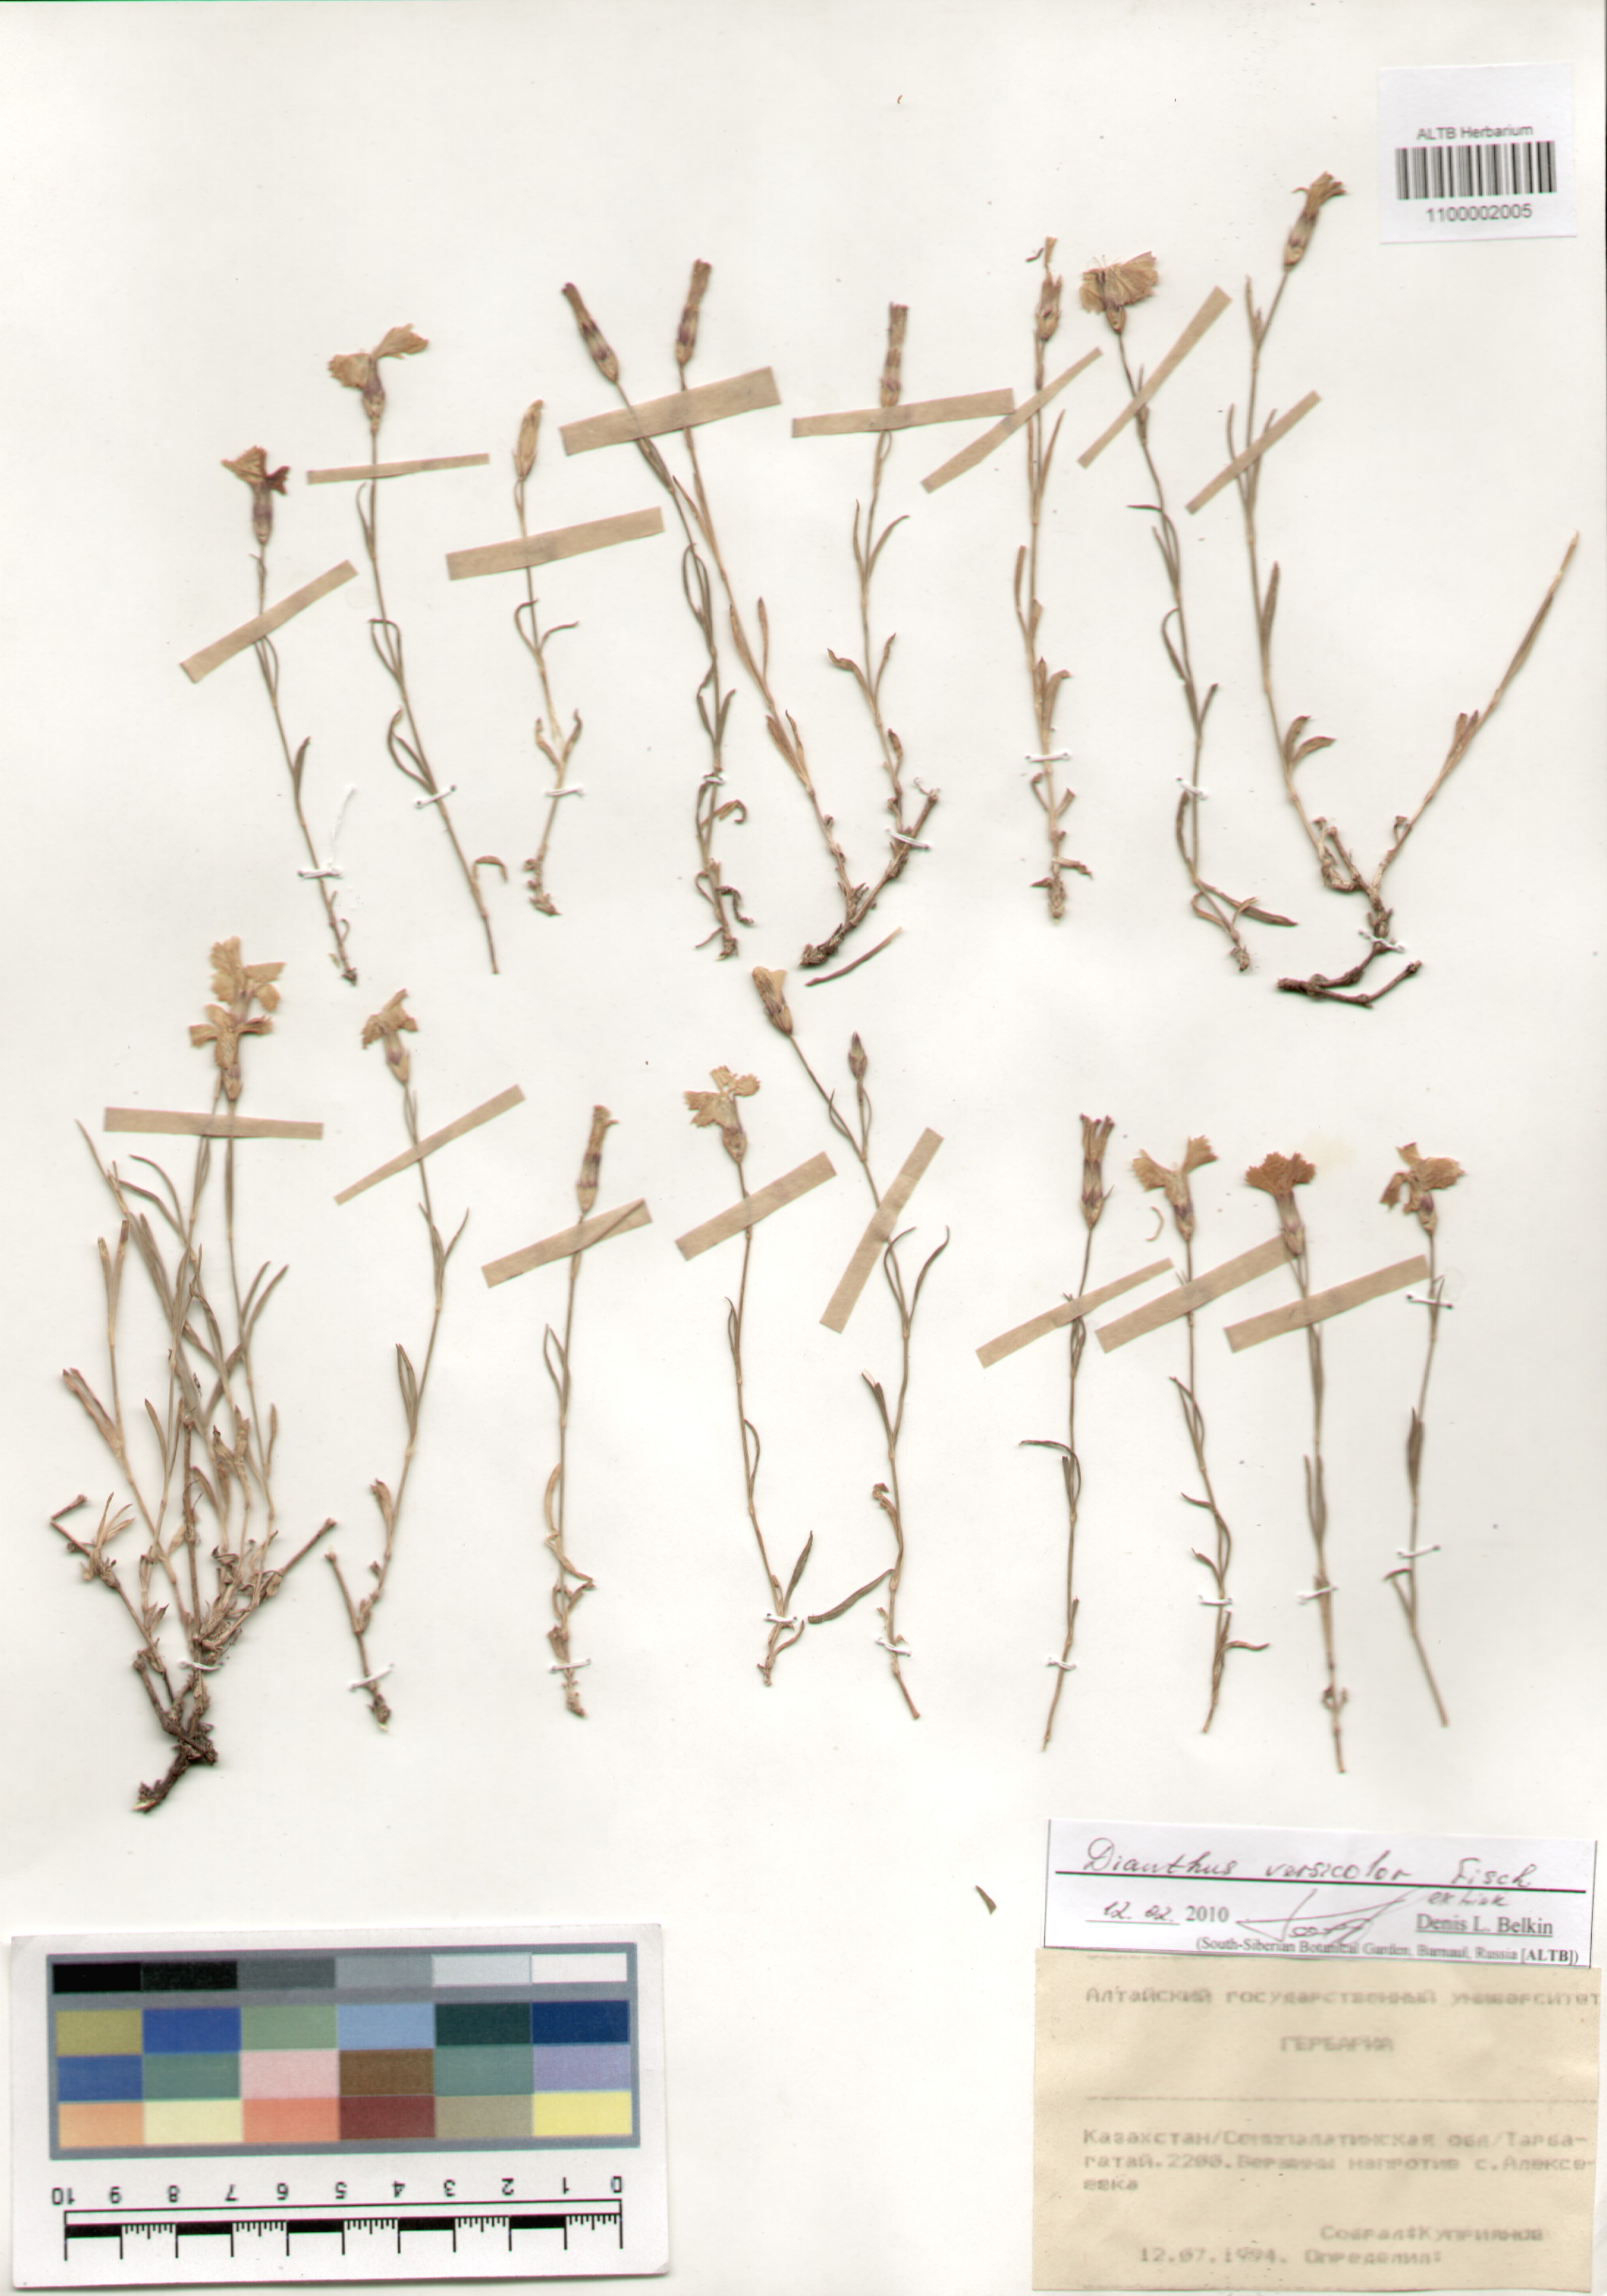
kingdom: Plantae
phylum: Tracheophyta
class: Magnoliopsida
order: Caryophyllales
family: Caryophyllaceae
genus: Dianthus
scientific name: Dianthus chinensis
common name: Rainbow pink
